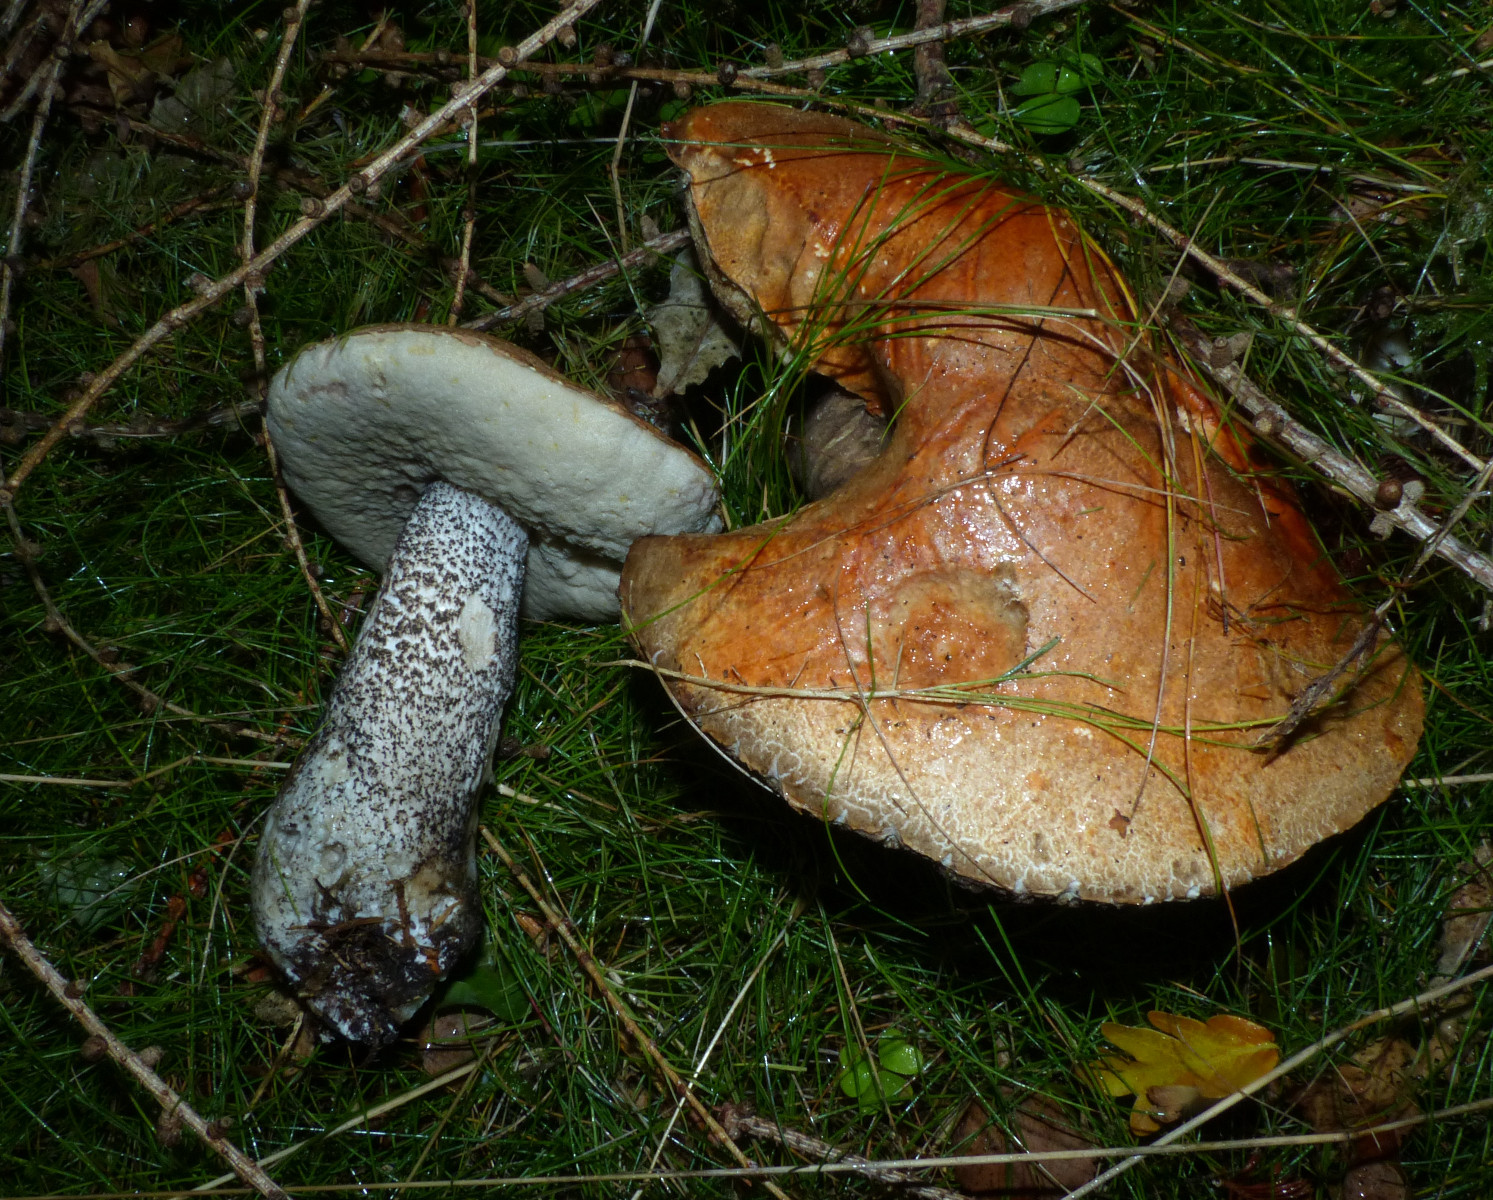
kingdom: Fungi
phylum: Basidiomycota
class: Agaricomycetes
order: Boletales
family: Boletaceae
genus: Leccinum
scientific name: Leccinum versipelle
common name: orange skælrørhat
